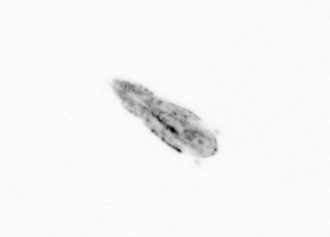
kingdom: Animalia
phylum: Arthropoda
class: Copepoda
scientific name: Copepoda
